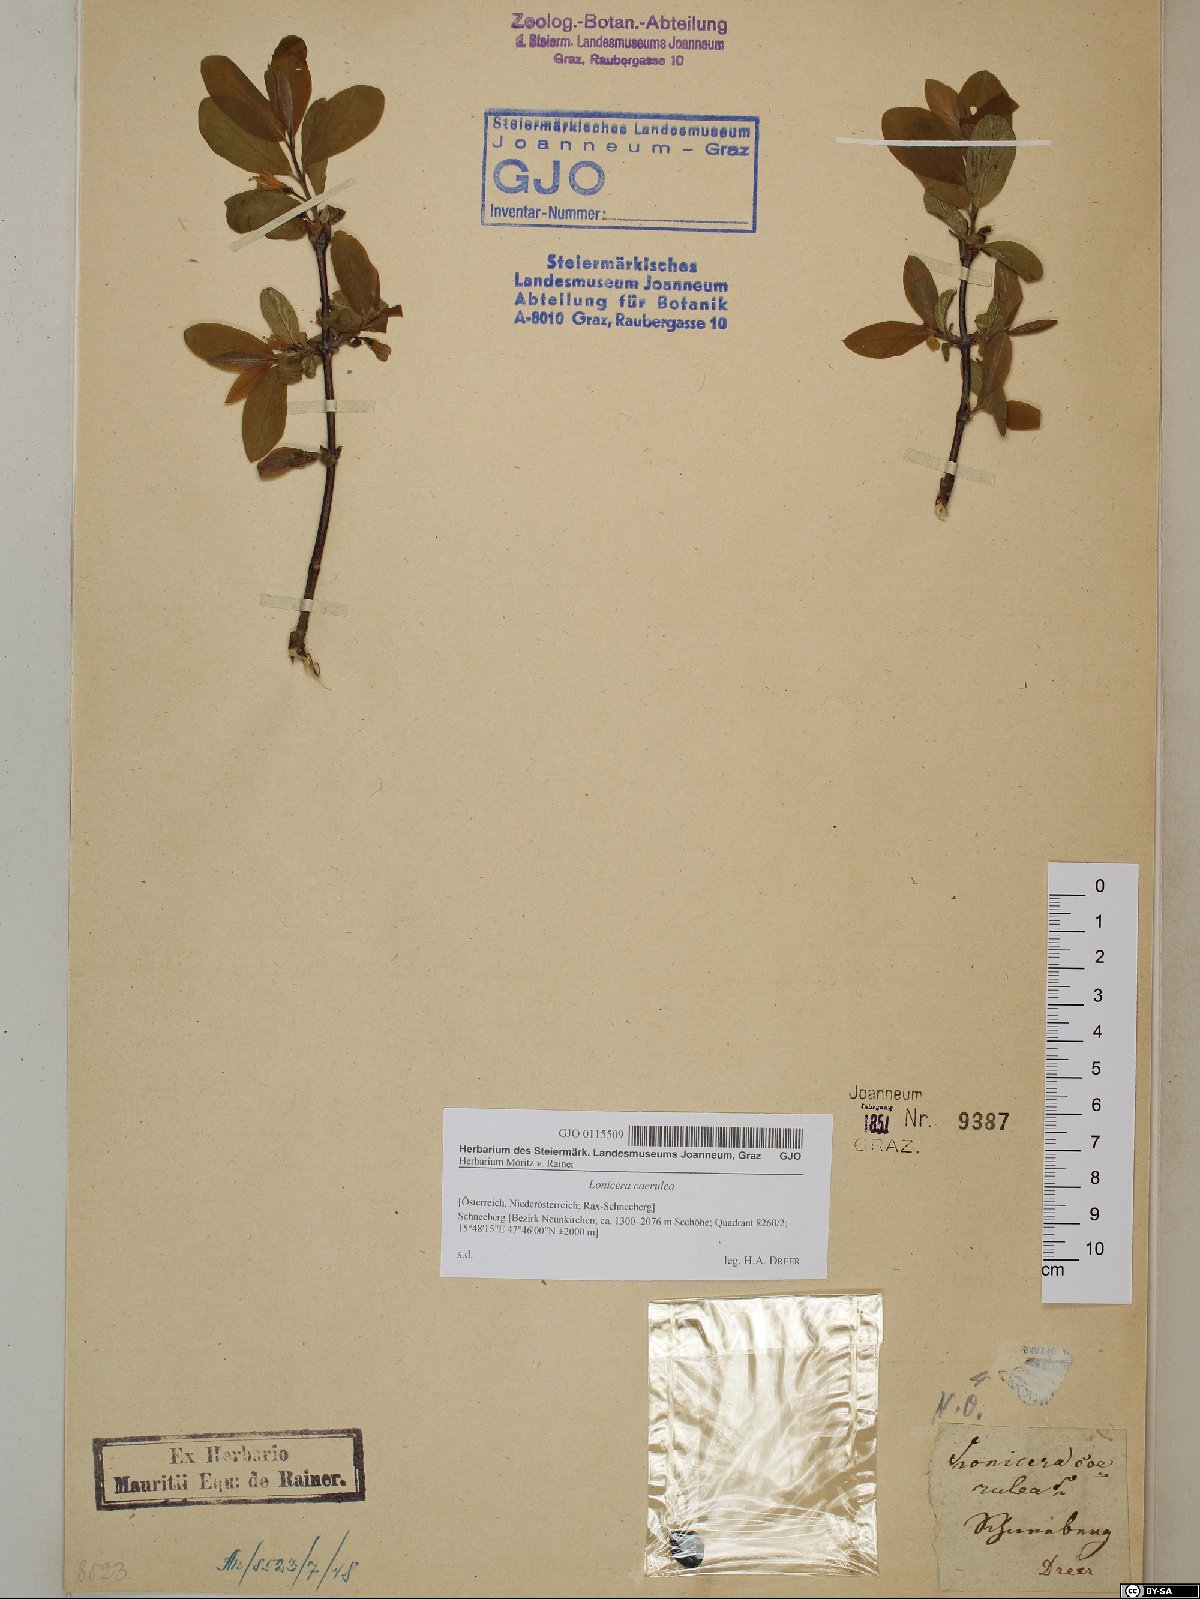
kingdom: Plantae
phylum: Tracheophyta
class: Magnoliopsida
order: Dipsacales
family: Caprifoliaceae
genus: Lonicera
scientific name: Lonicera caerulea
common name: Blue honeysuckle
